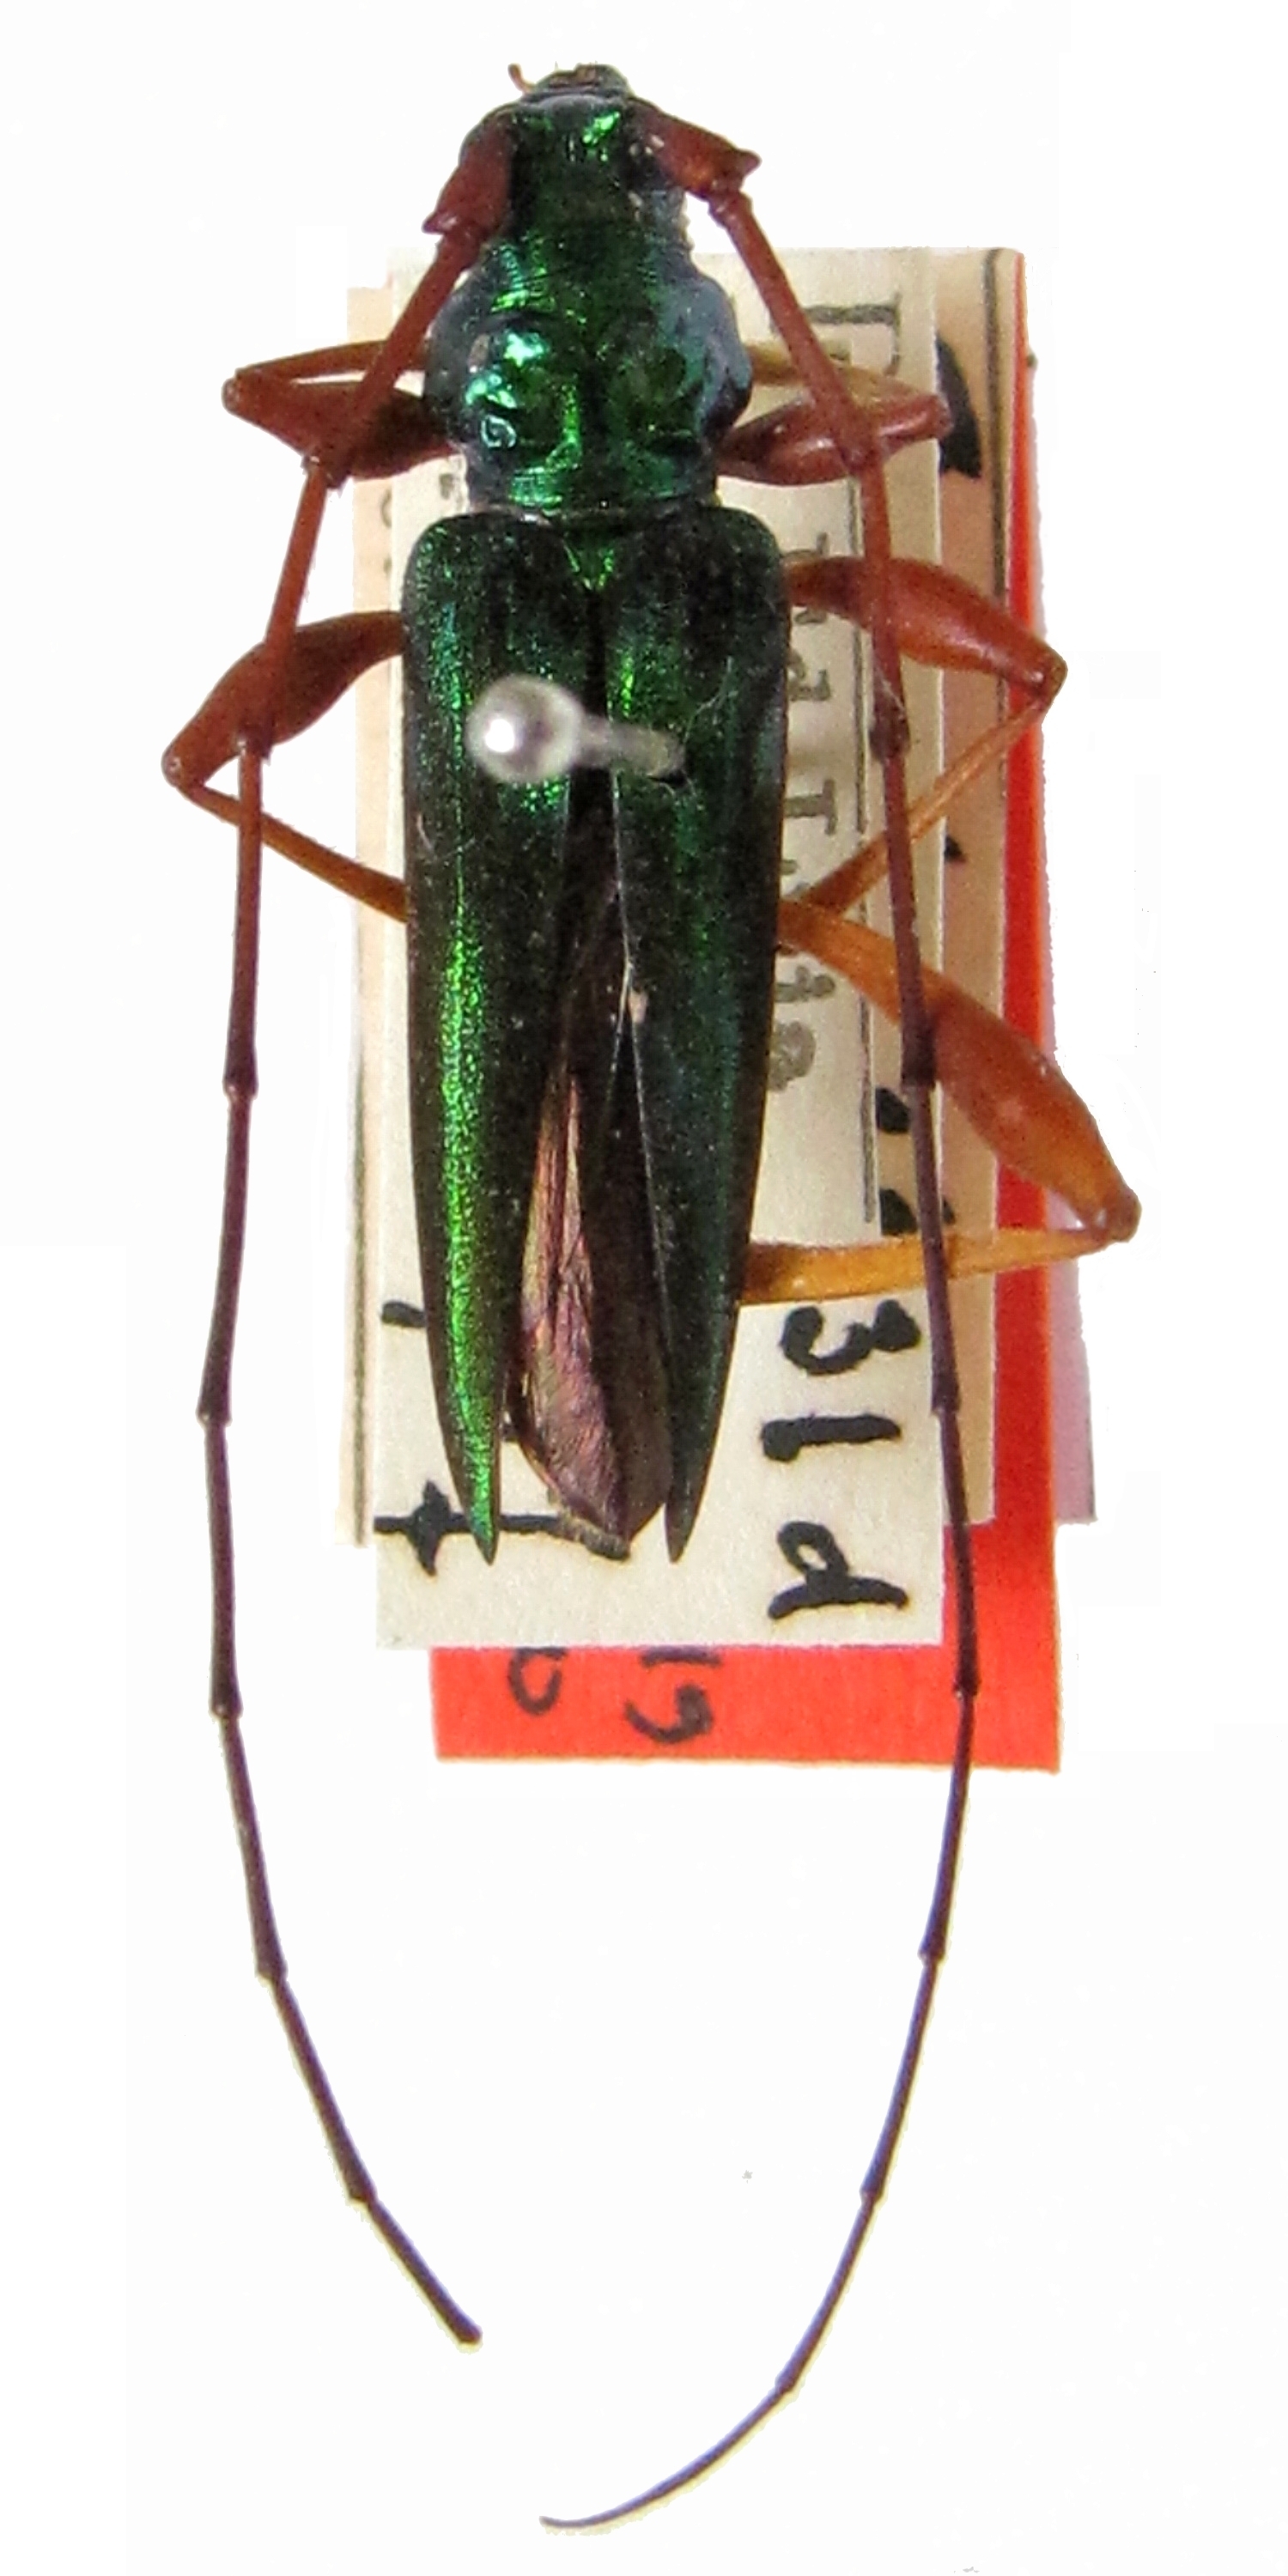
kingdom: Animalia
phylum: Arthropoda
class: Insecta
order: Coleoptera
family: Cerambycidae
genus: Hybunca
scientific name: Hybunca nodicollis
